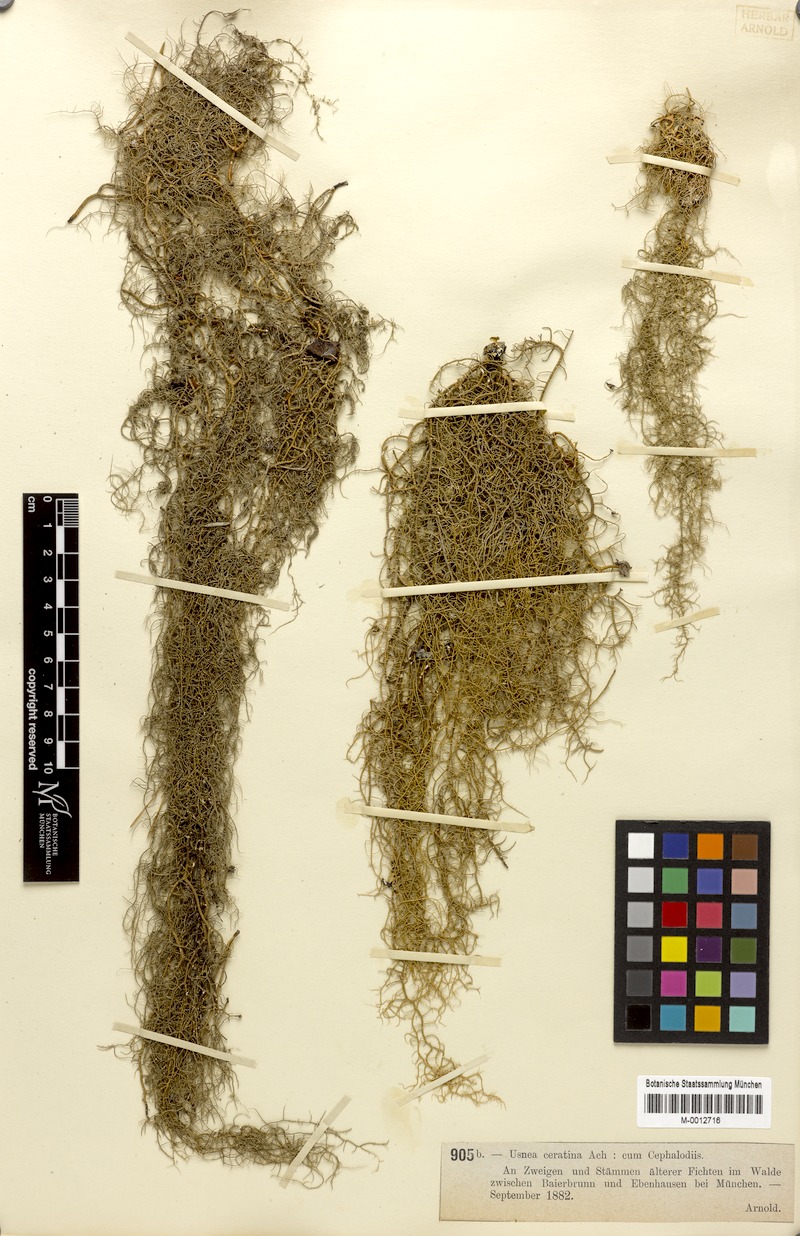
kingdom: Fungi
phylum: Ascomycota
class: Lecanoromycetes
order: Lecanorales
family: Parmeliaceae
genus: Usnea
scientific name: Usnea ceratina
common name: Warty beard lichen
